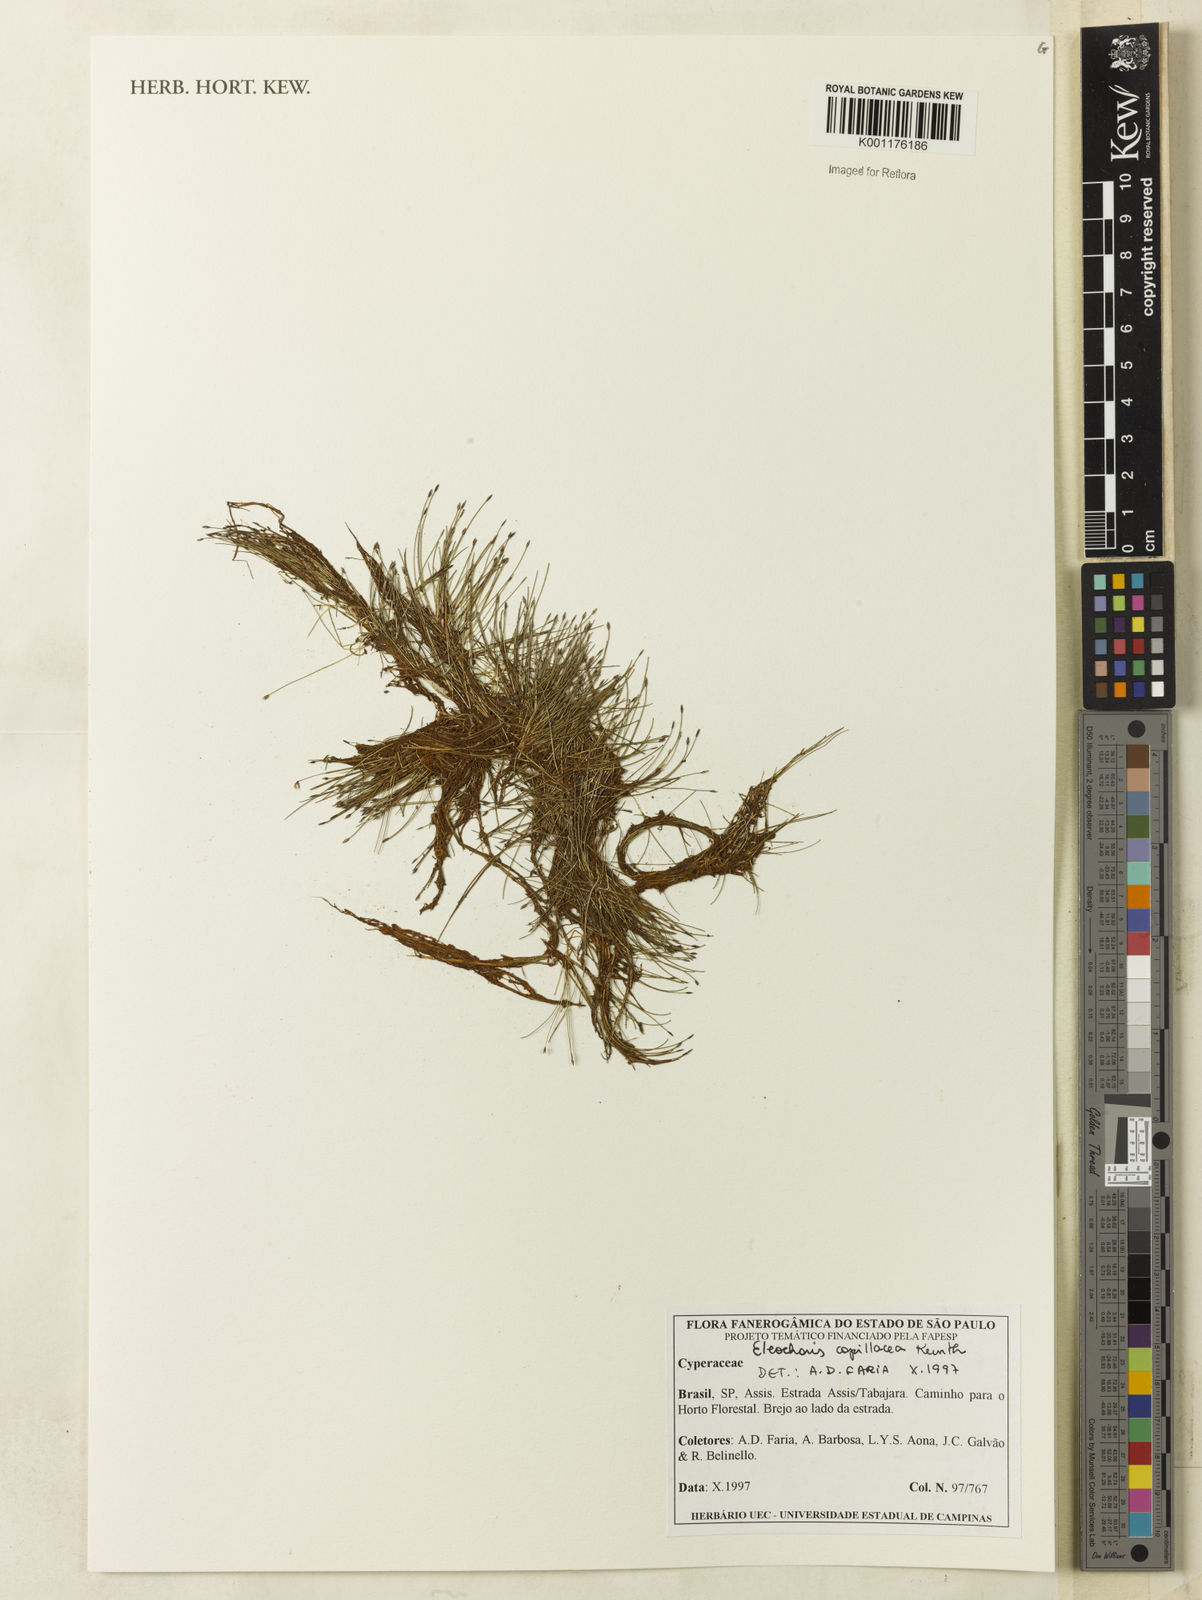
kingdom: Plantae
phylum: Tracheophyta
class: Liliopsida
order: Poales
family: Cyperaceae
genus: Eleocharis
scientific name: Eleocharis capillacea
